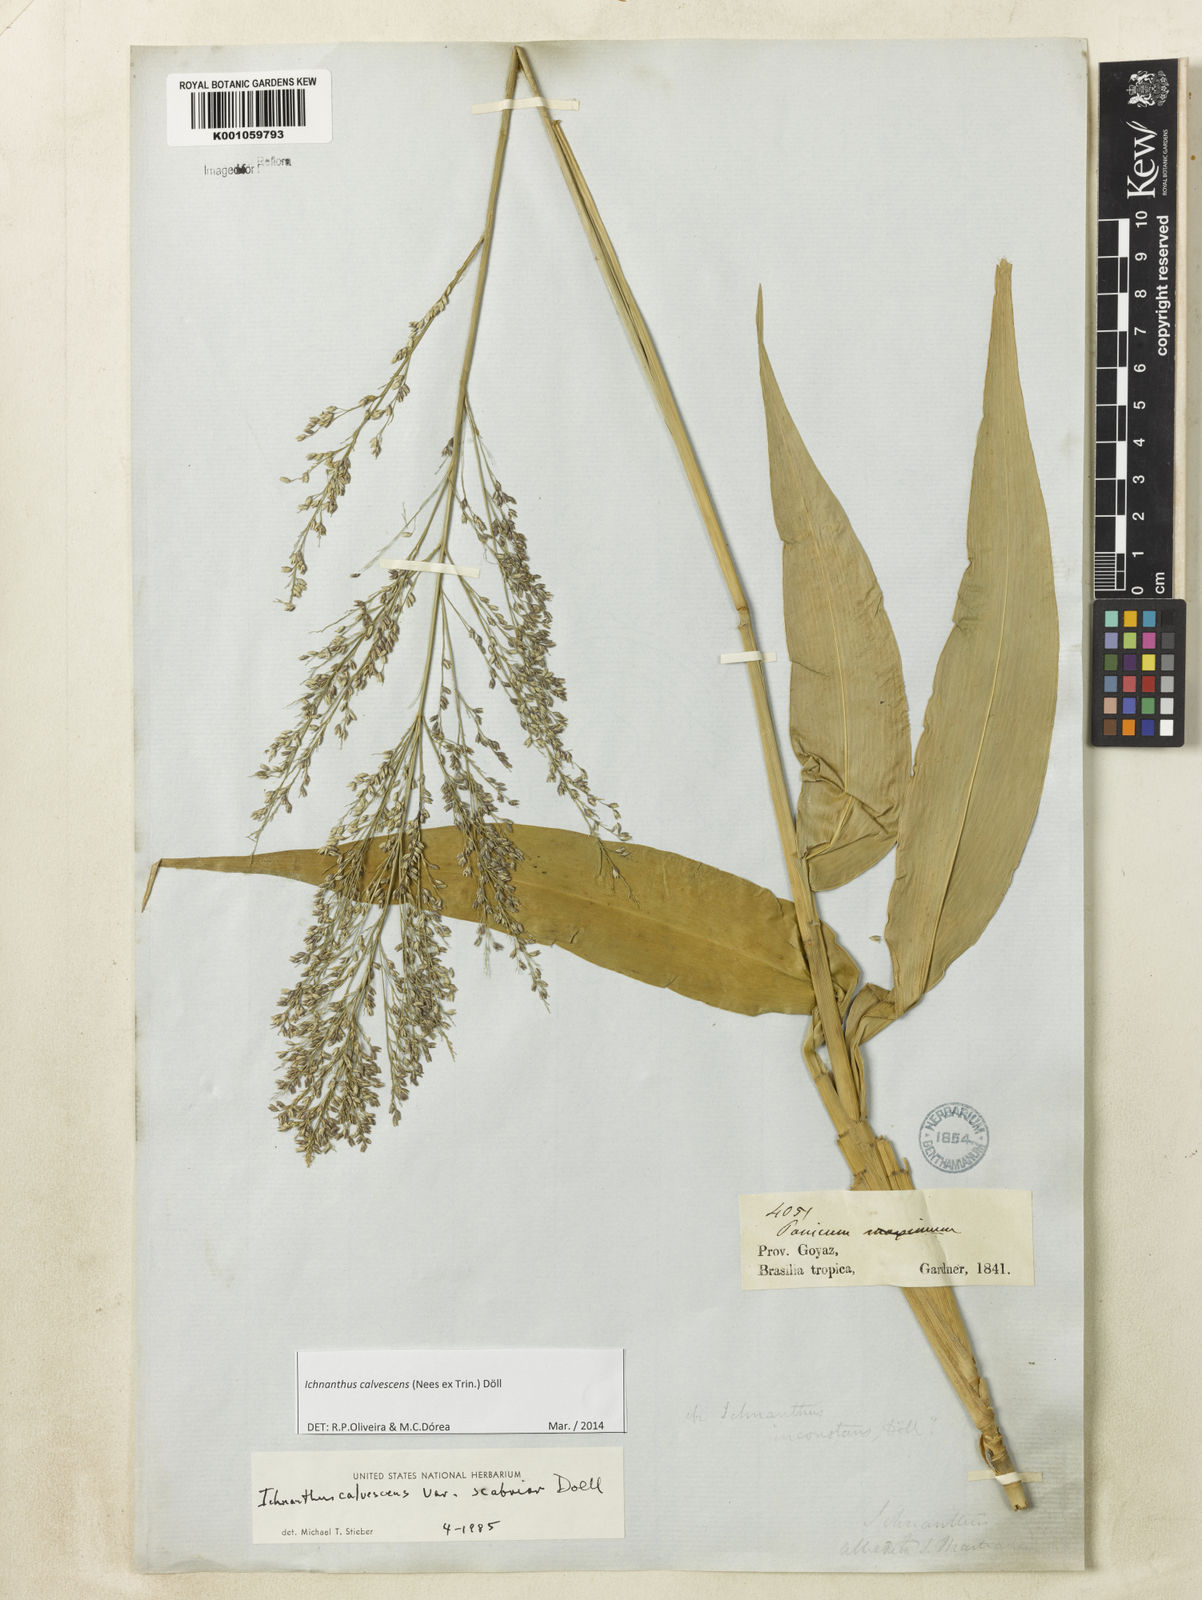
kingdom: Plantae
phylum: Tracheophyta
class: Liliopsida
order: Poales
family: Poaceae
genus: Ichnanthus
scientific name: Ichnanthus
